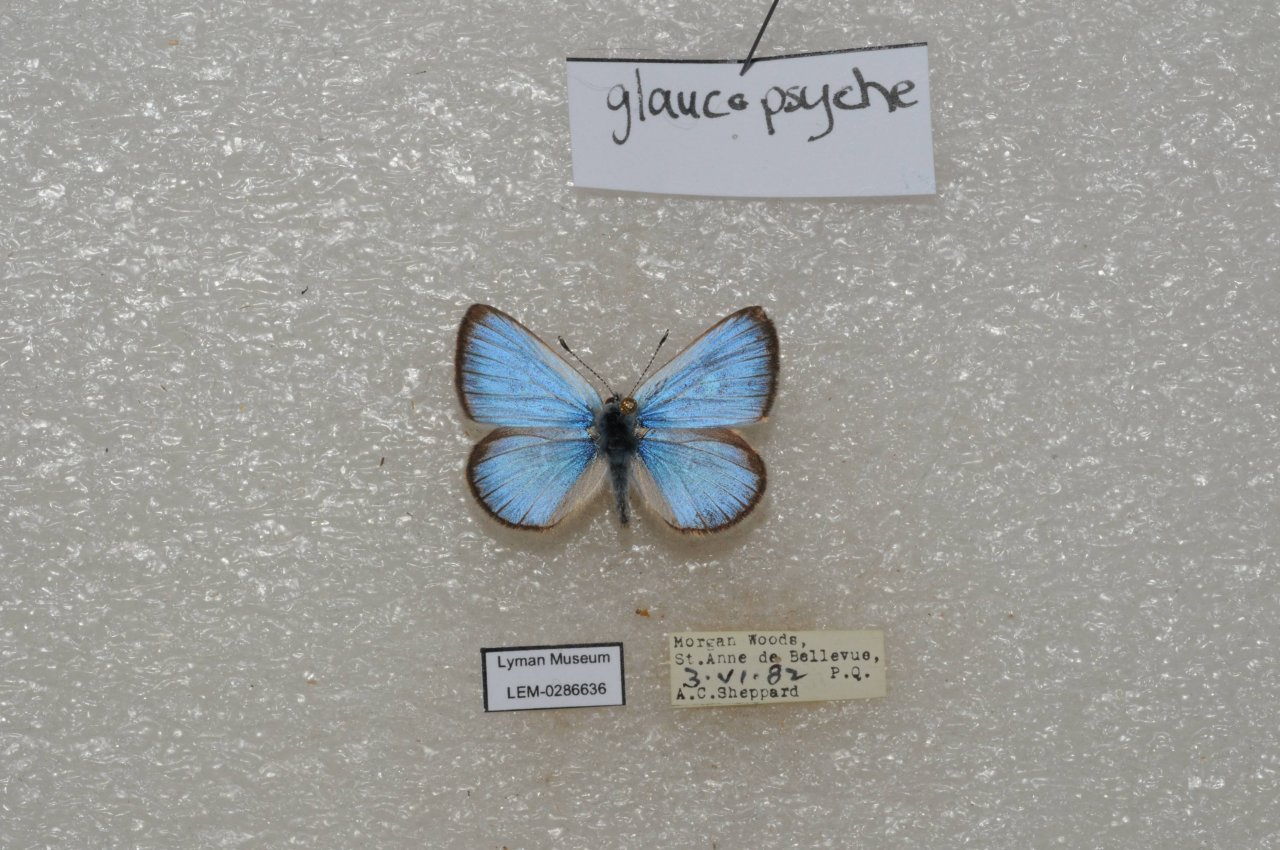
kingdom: Animalia
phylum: Arthropoda
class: Insecta
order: Lepidoptera
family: Lycaenidae
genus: Glaucopsyche
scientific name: Glaucopsyche lygdamus
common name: Silvery Blue
